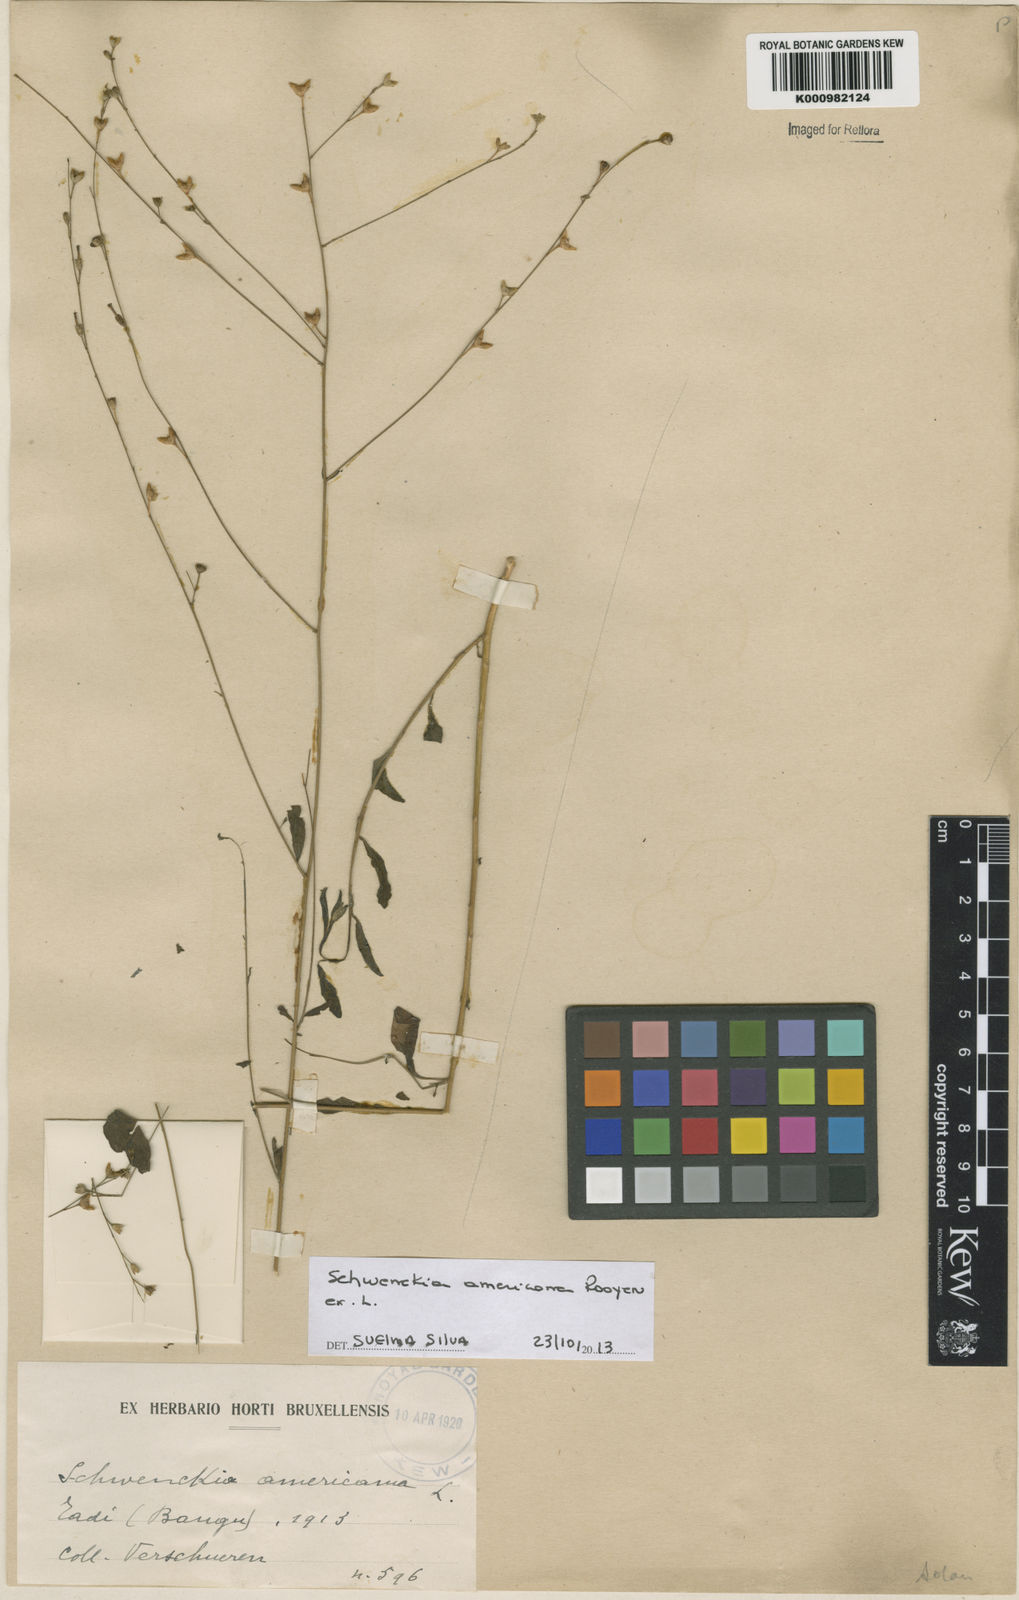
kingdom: Plantae
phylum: Tracheophyta
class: Magnoliopsida
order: Solanales
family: Solanaceae
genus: Brunfelsia
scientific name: Brunfelsia
